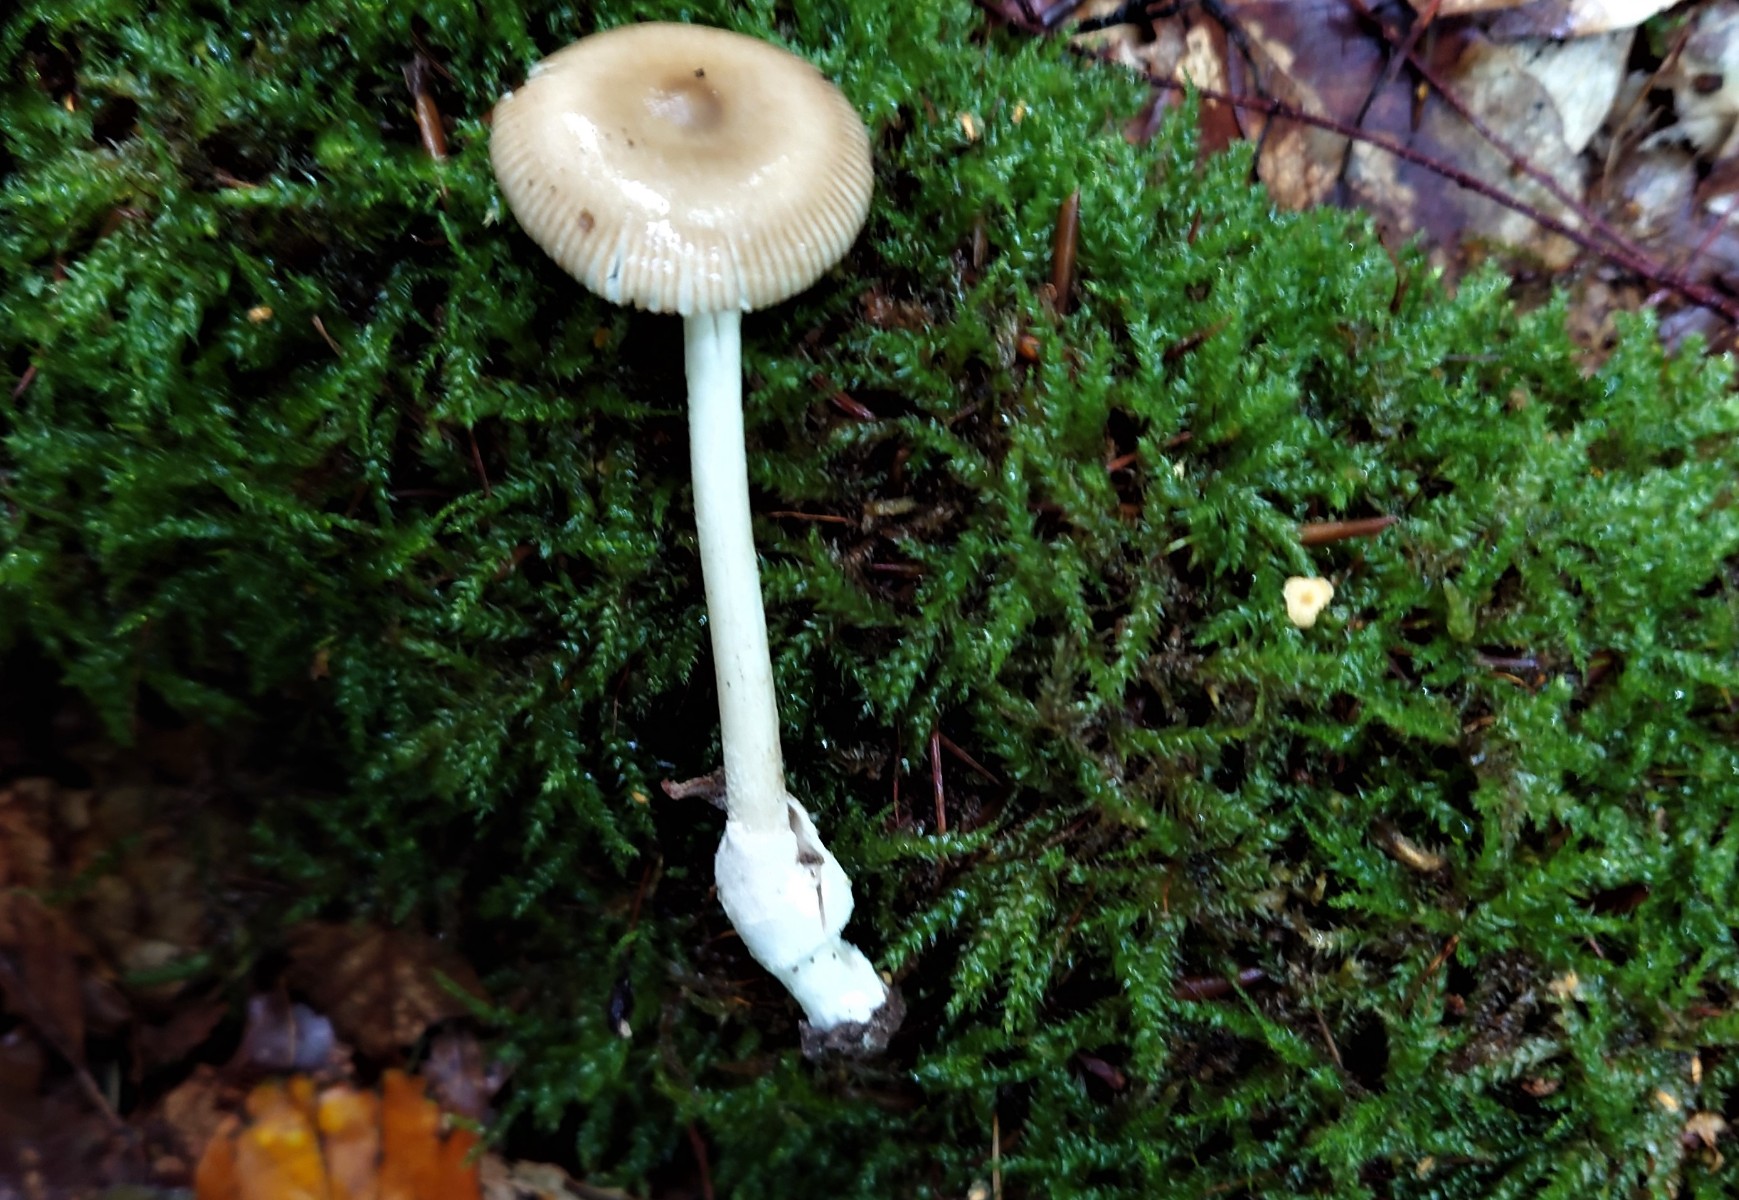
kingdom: Fungi
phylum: Basidiomycota
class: Agaricomycetes
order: Agaricales
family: Amanitaceae
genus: Amanita
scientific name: Amanita olivaceogrisea
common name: olivengrå kam-fluesvamp
